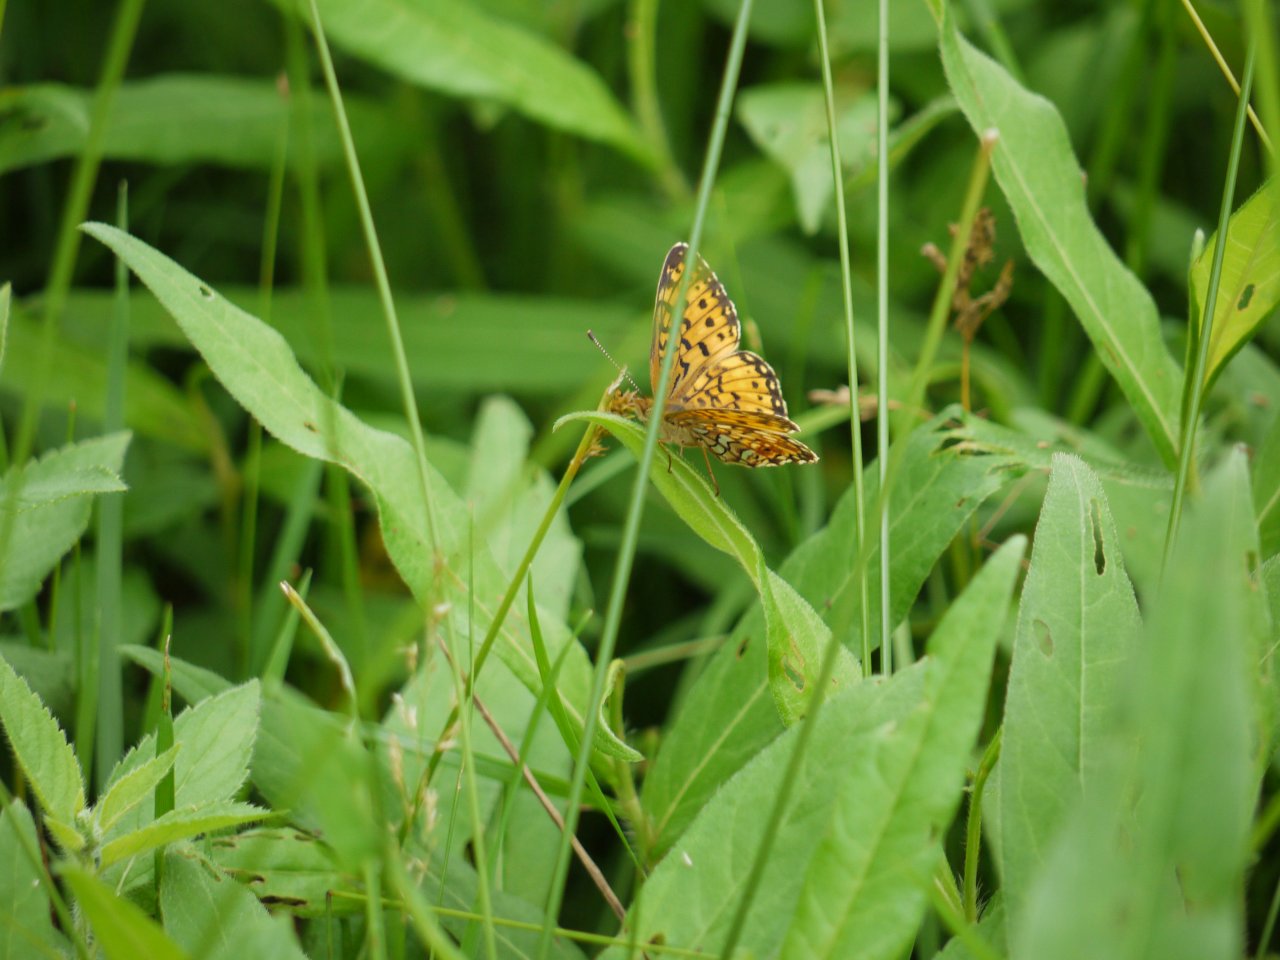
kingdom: Animalia
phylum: Arthropoda
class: Insecta
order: Lepidoptera
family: Nymphalidae
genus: Boloria
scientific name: Boloria selene
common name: Silver-bordered Fritillary
